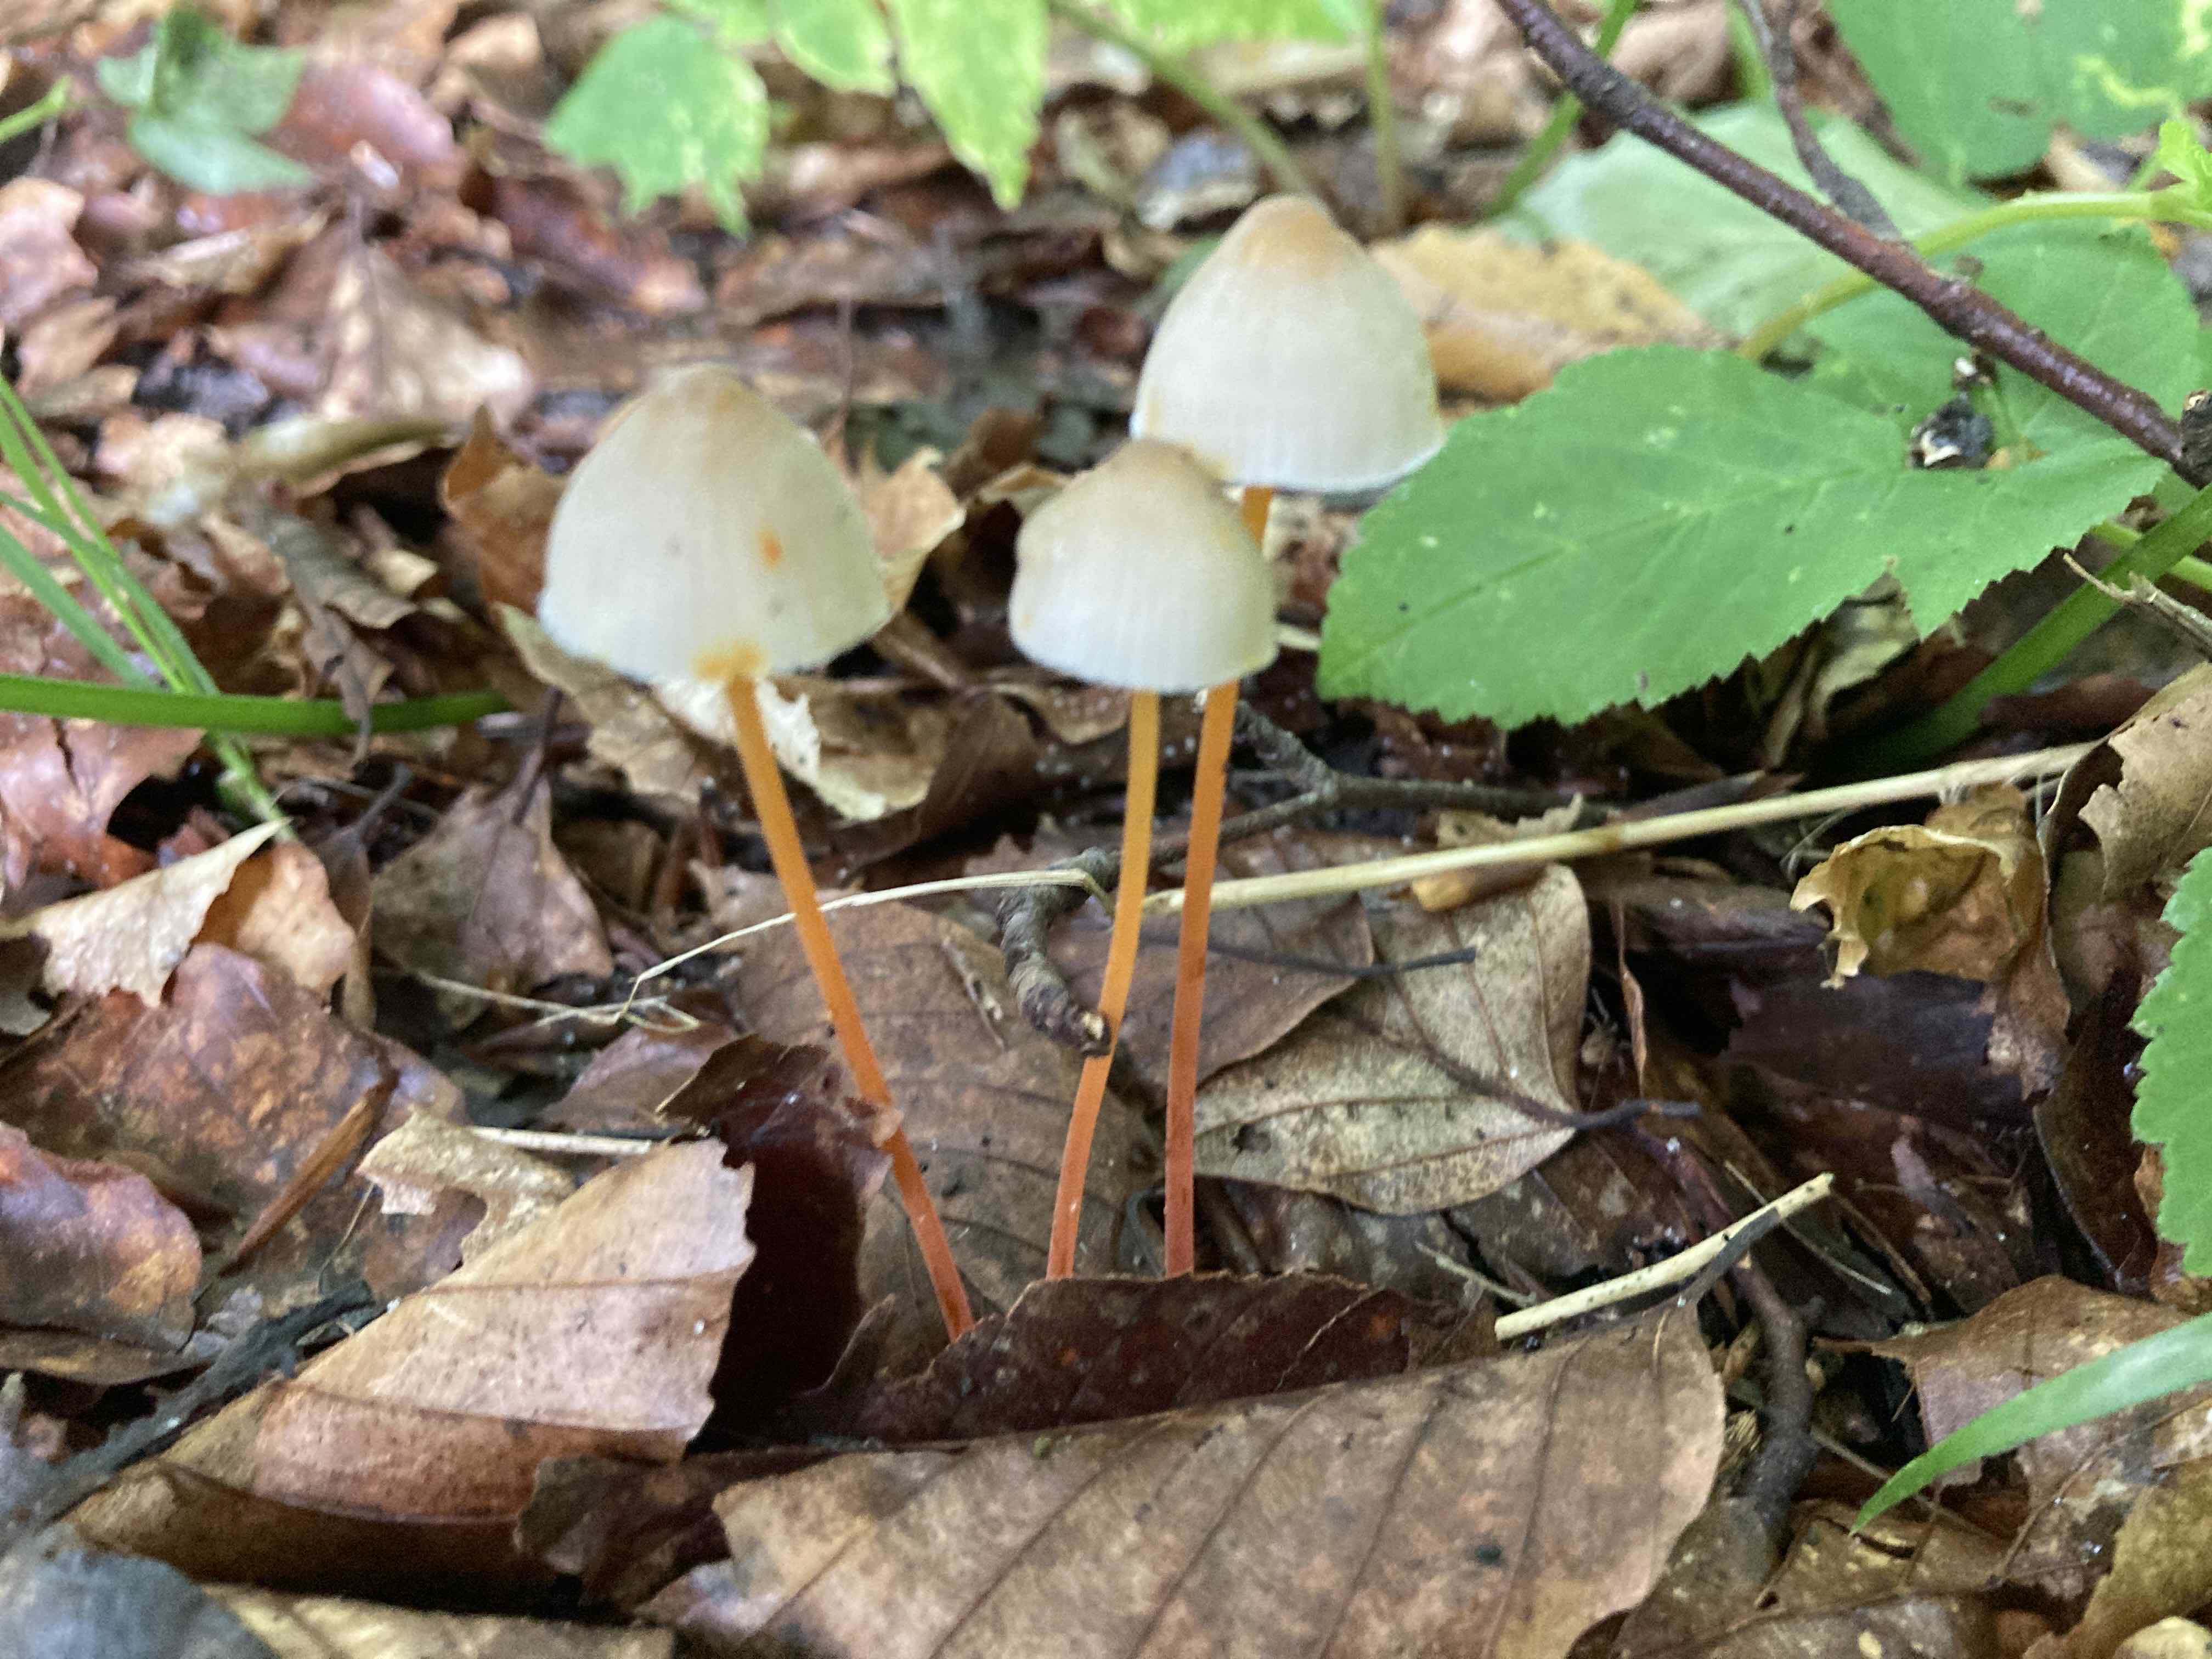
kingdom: Fungi
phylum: Basidiomycota
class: Agaricomycetes
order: Agaricales
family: Mycenaceae
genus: Mycena
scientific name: Mycena crocata
